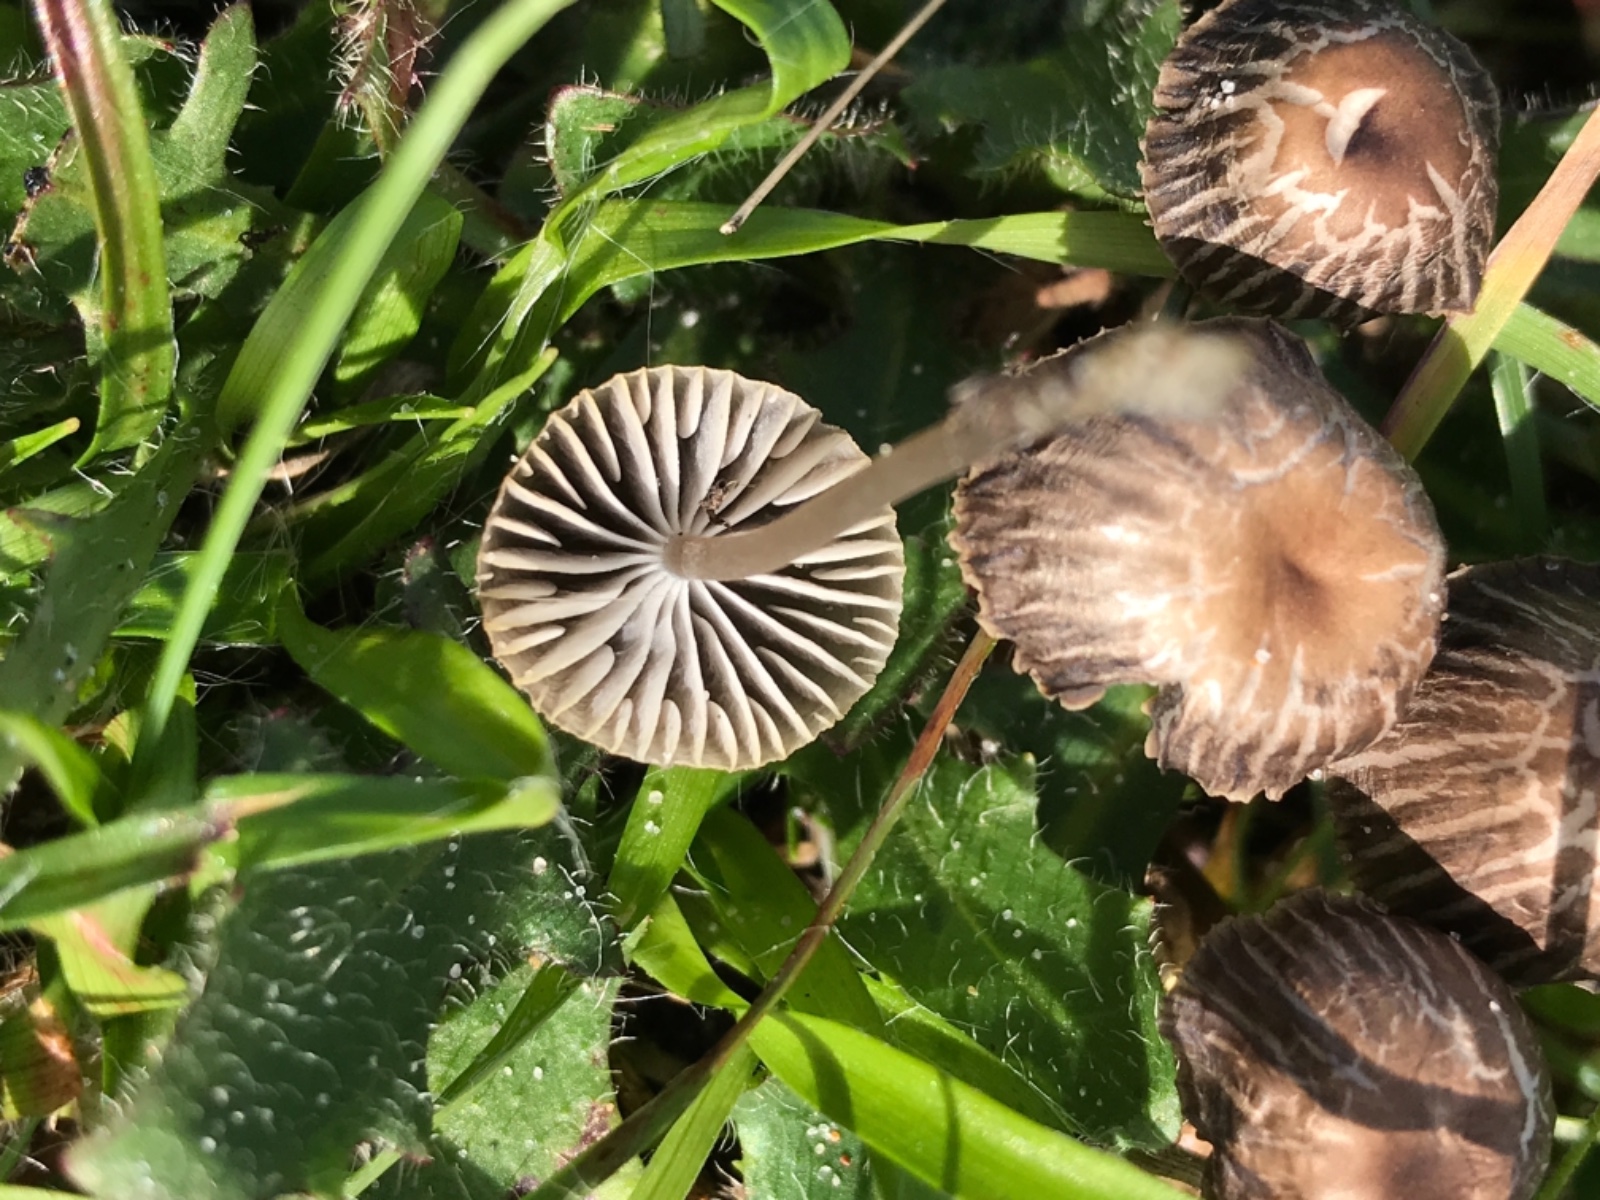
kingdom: Fungi
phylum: Basidiomycota
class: Agaricomycetes
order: Agaricales
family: Mycenaceae
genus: Mycena
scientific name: Mycena latifolia
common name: bredbladet huesvamp
